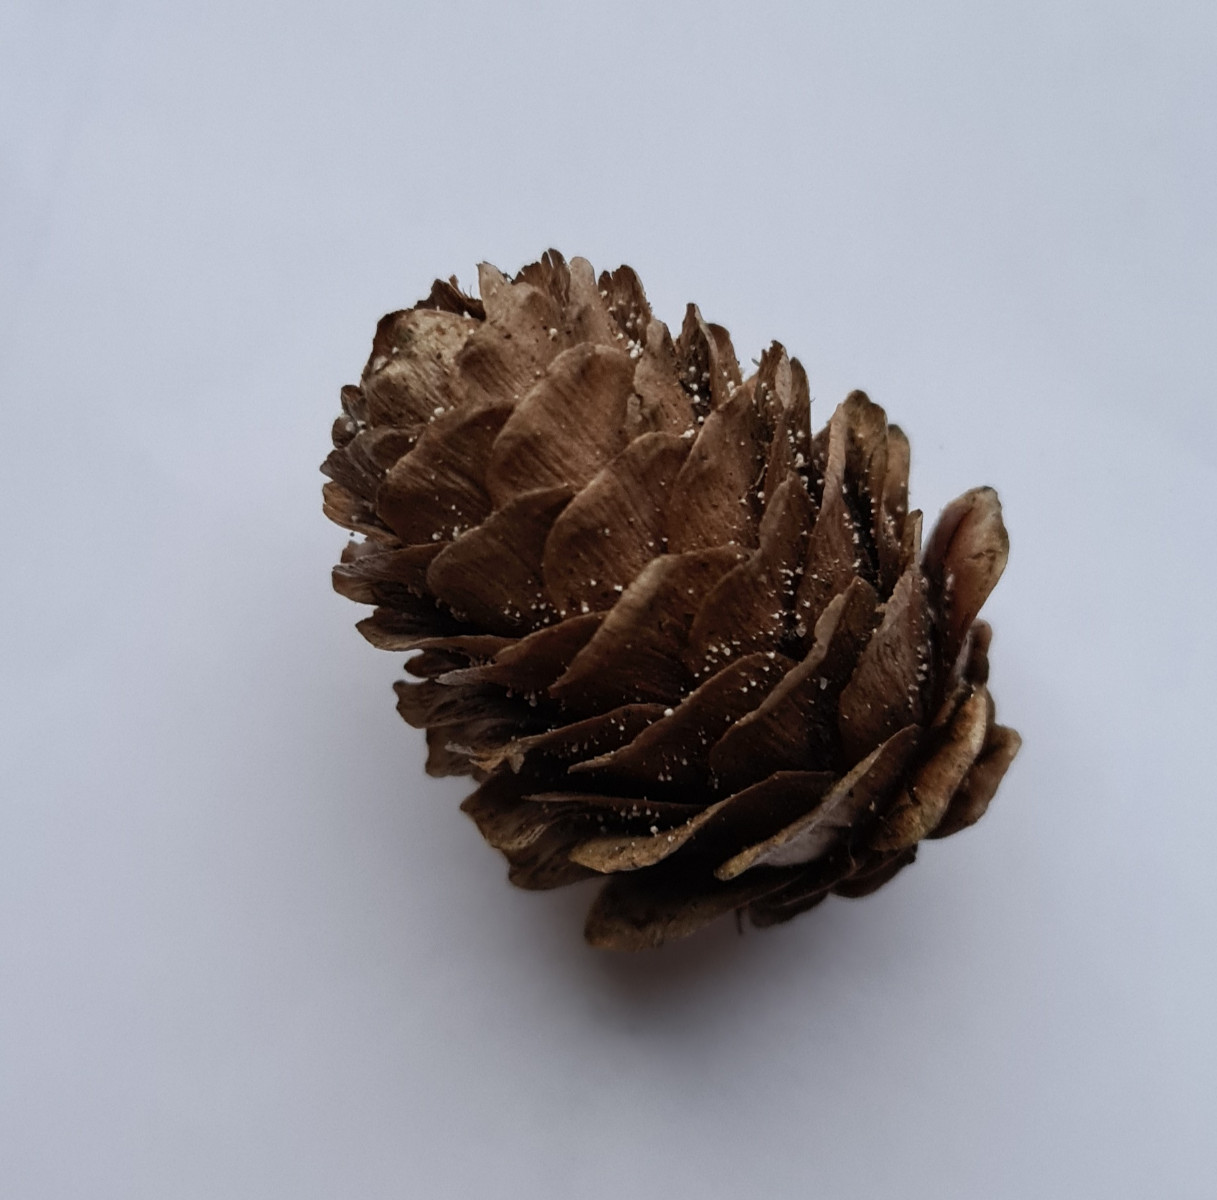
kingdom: Fungi
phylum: Ascomycota
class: Leotiomycetes
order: Helotiales
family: Lachnaceae
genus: Lachnum
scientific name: Lachnum virgineum
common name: jomfru-frynseskive
